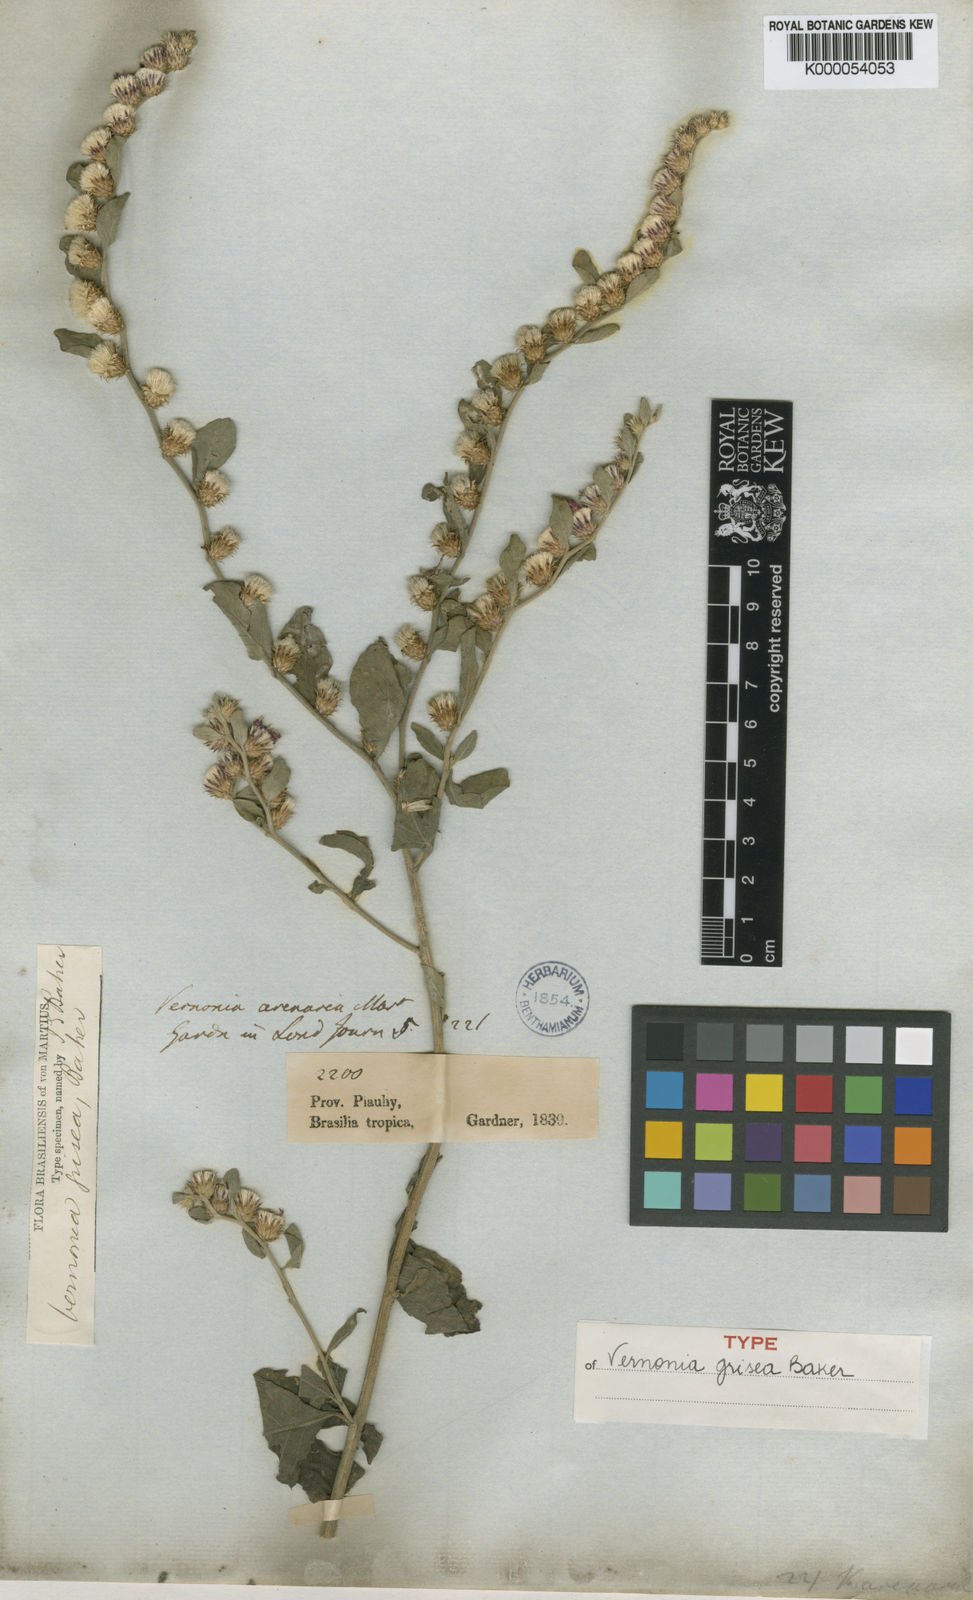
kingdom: Plantae
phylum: Tracheophyta
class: Magnoliopsida
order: Asterales
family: Asteraceae
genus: Lepidaploa
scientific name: Lepidaploa arenaria
